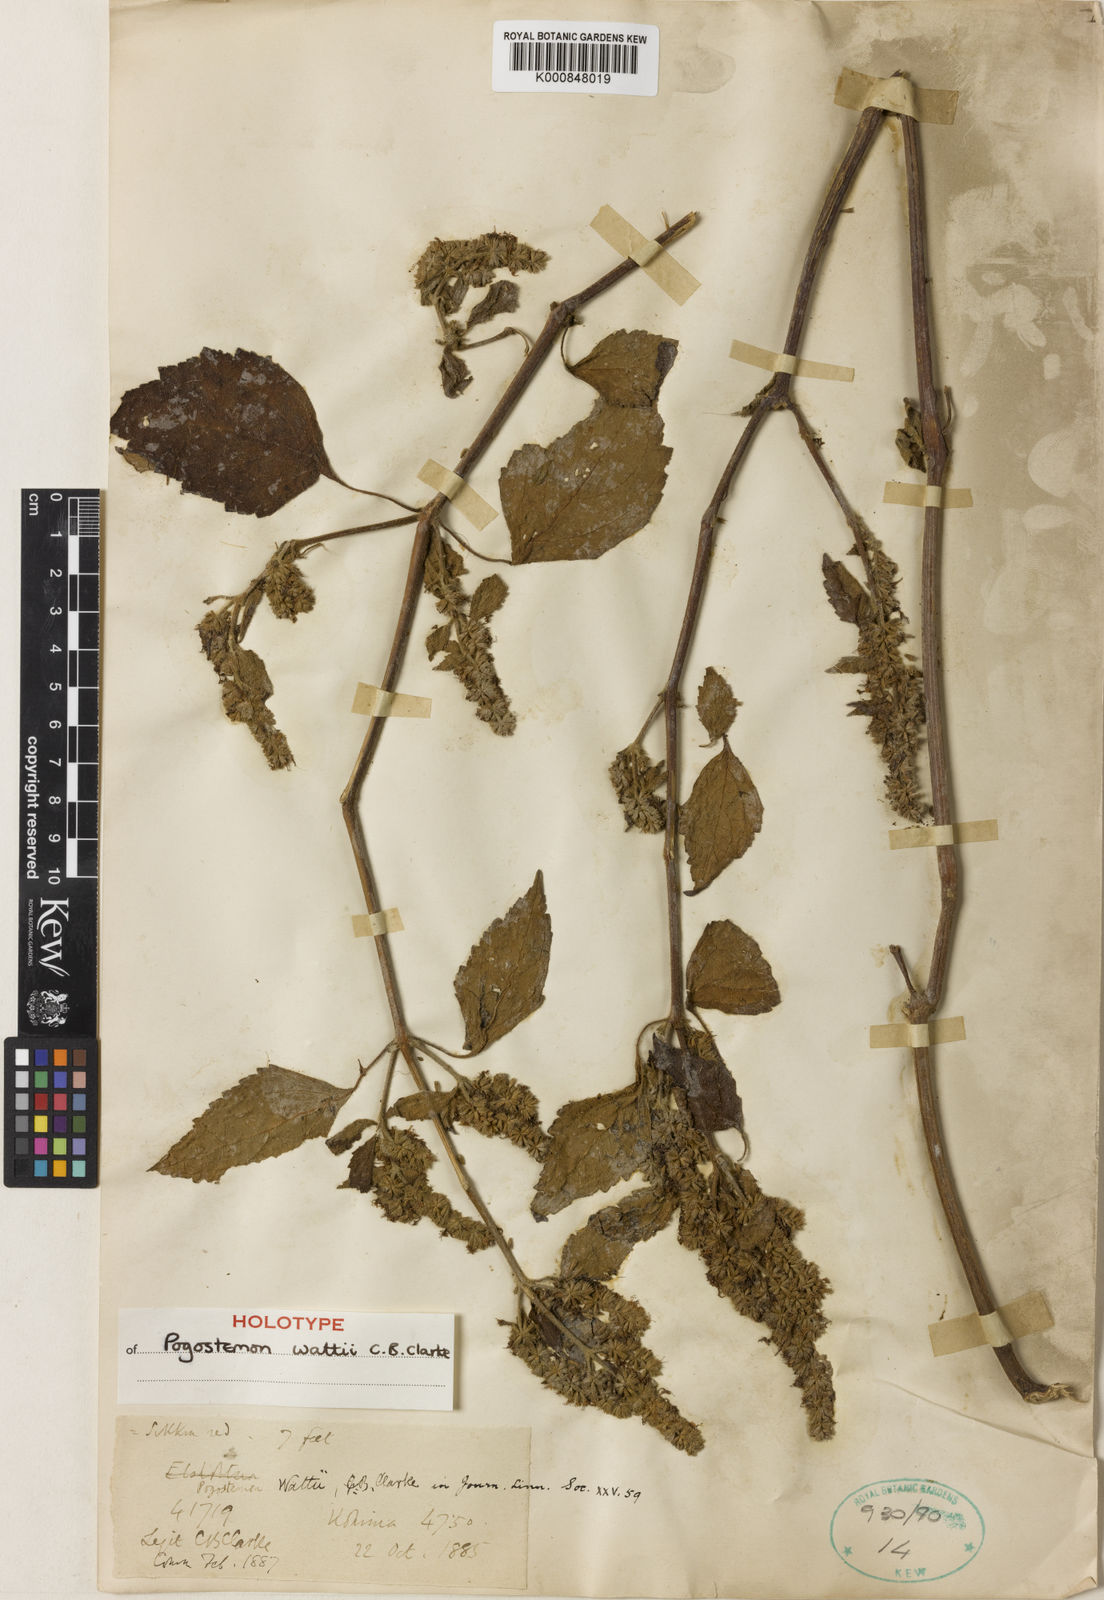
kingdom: Plantae
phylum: Tracheophyta
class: Magnoliopsida
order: Lamiales
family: Lamiaceae
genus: Pogostemon
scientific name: Pogostemon wattii
